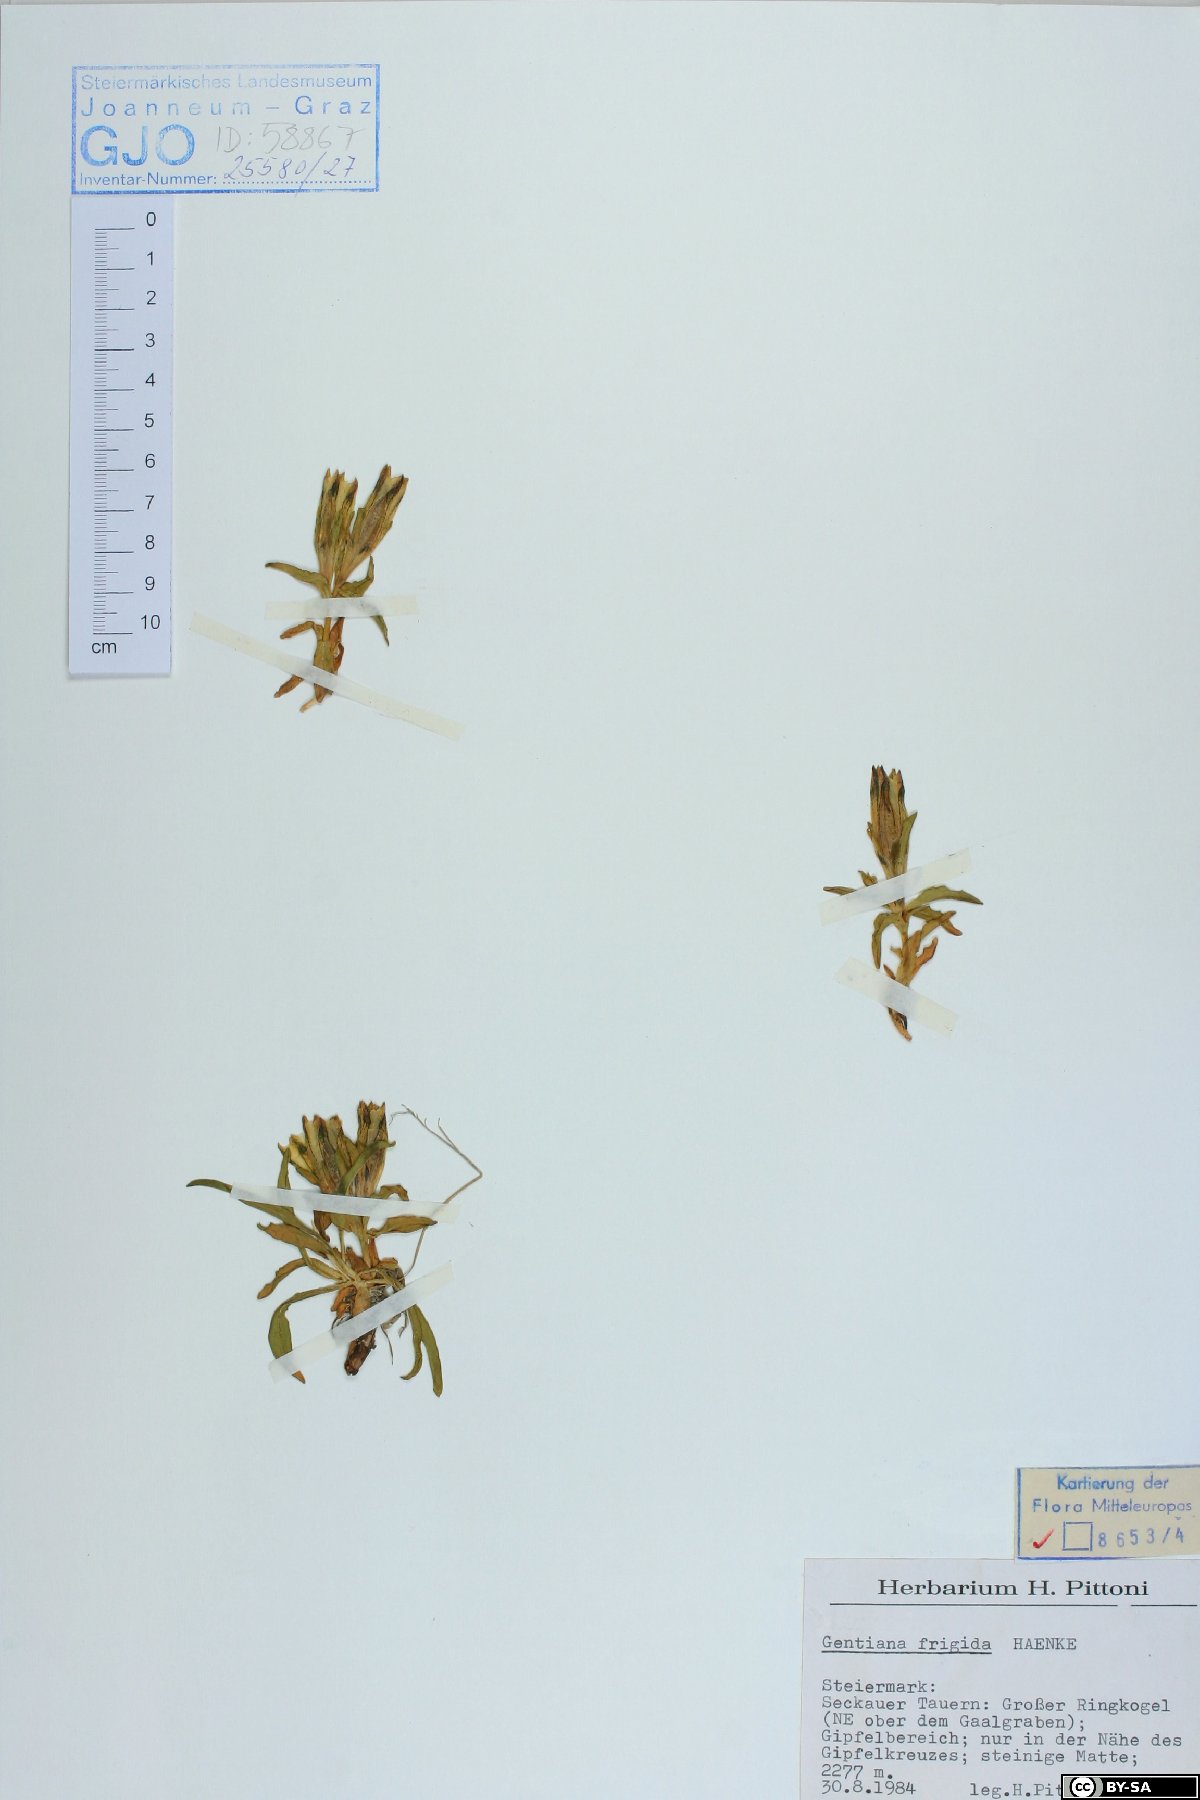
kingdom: Plantae
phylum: Tracheophyta
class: Magnoliopsida
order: Gentianales
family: Gentianaceae
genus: Gentiana
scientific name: Gentiana frigida
